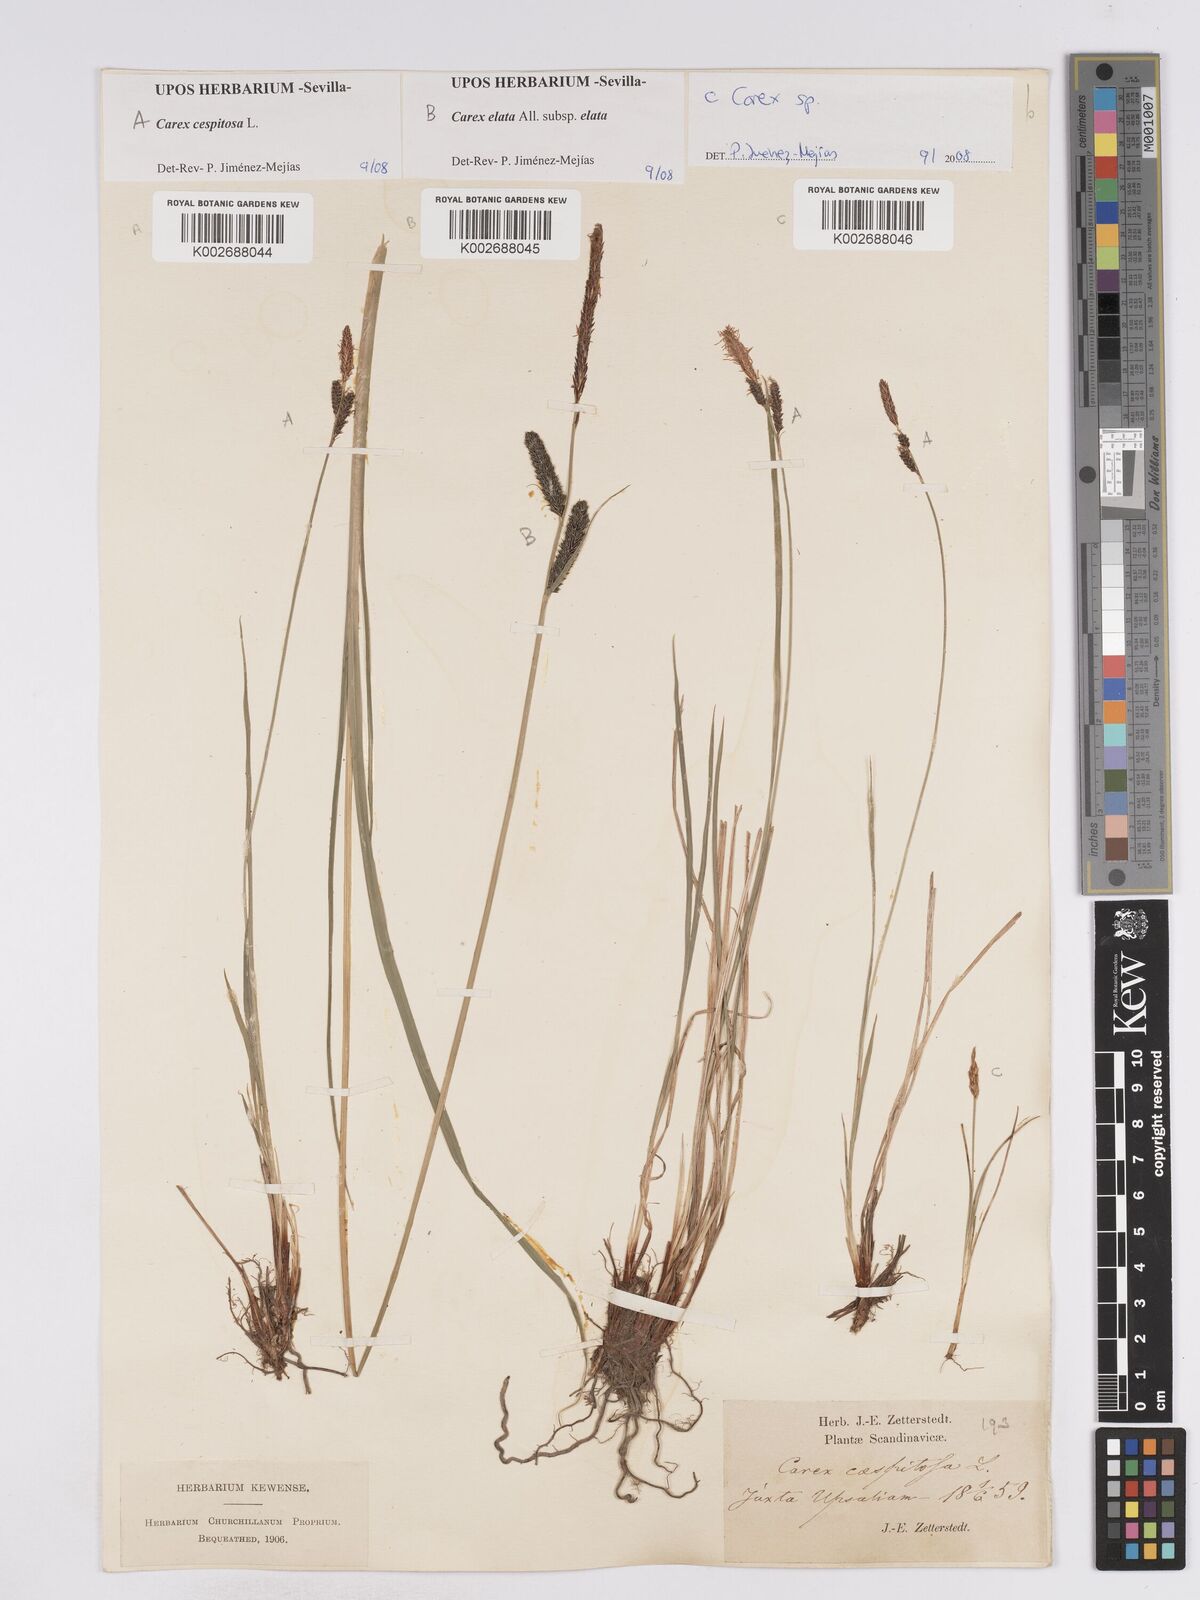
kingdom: Plantae
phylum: Tracheophyta
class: Liliopsida
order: Poales
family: Cyperaceae
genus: Carex
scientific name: Carex
